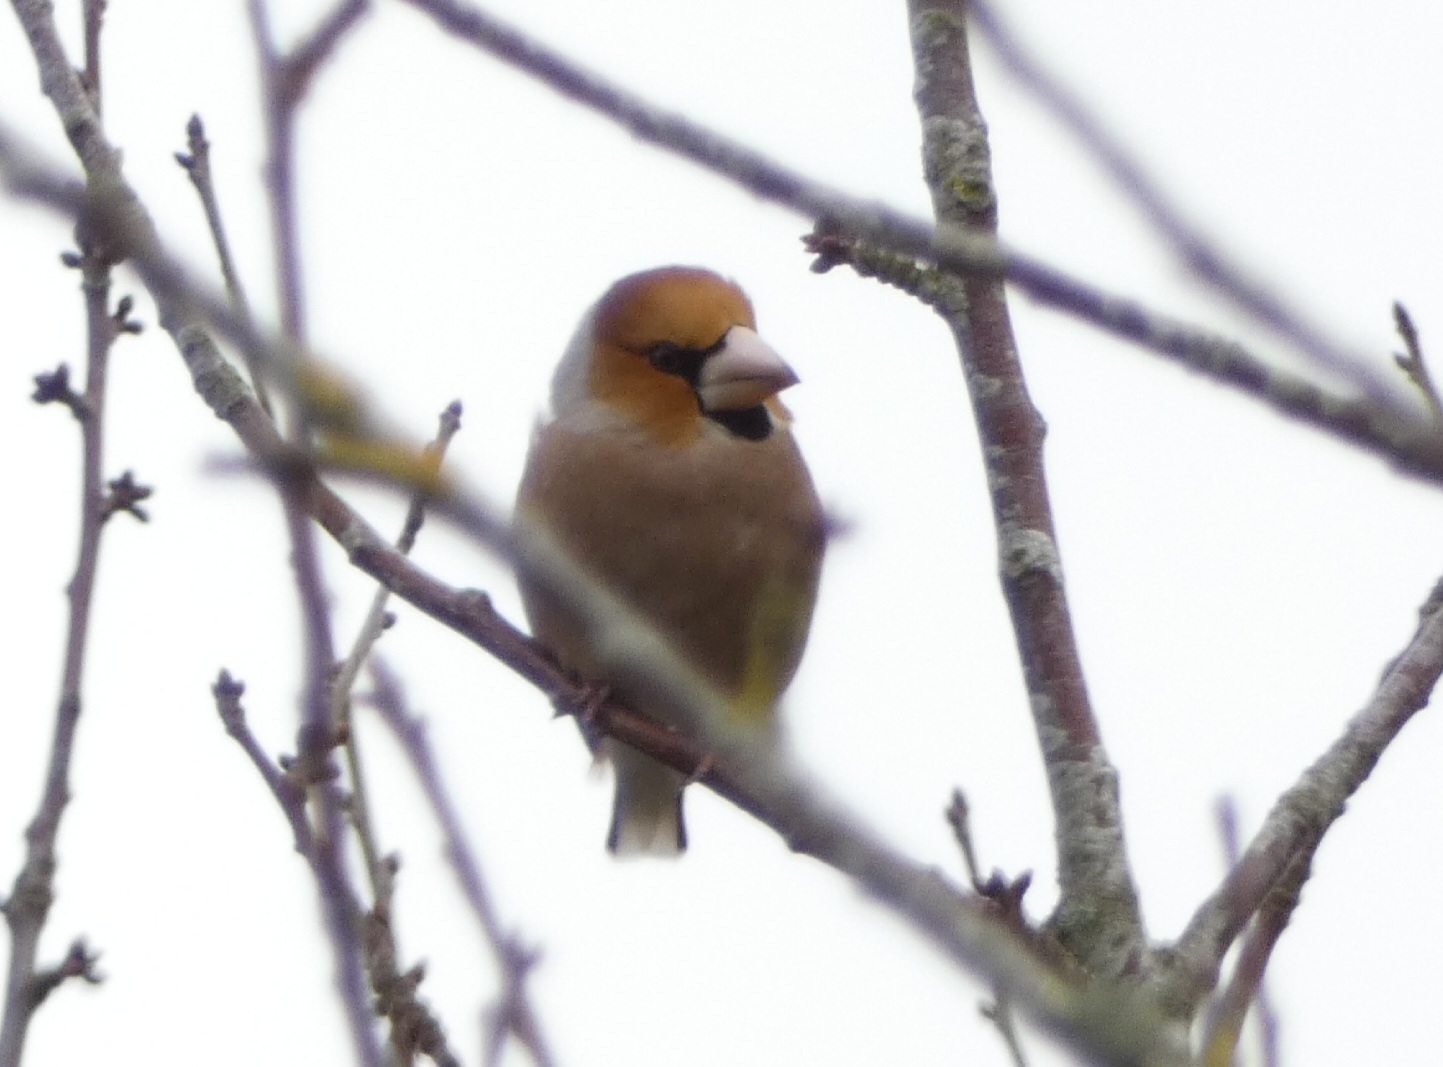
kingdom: Animalia
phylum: Chordata
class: Aves
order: Passeriformes
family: Fringillidae
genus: Coccothraustes
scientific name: Coccothraustes coccothraustes
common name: Kernebider
